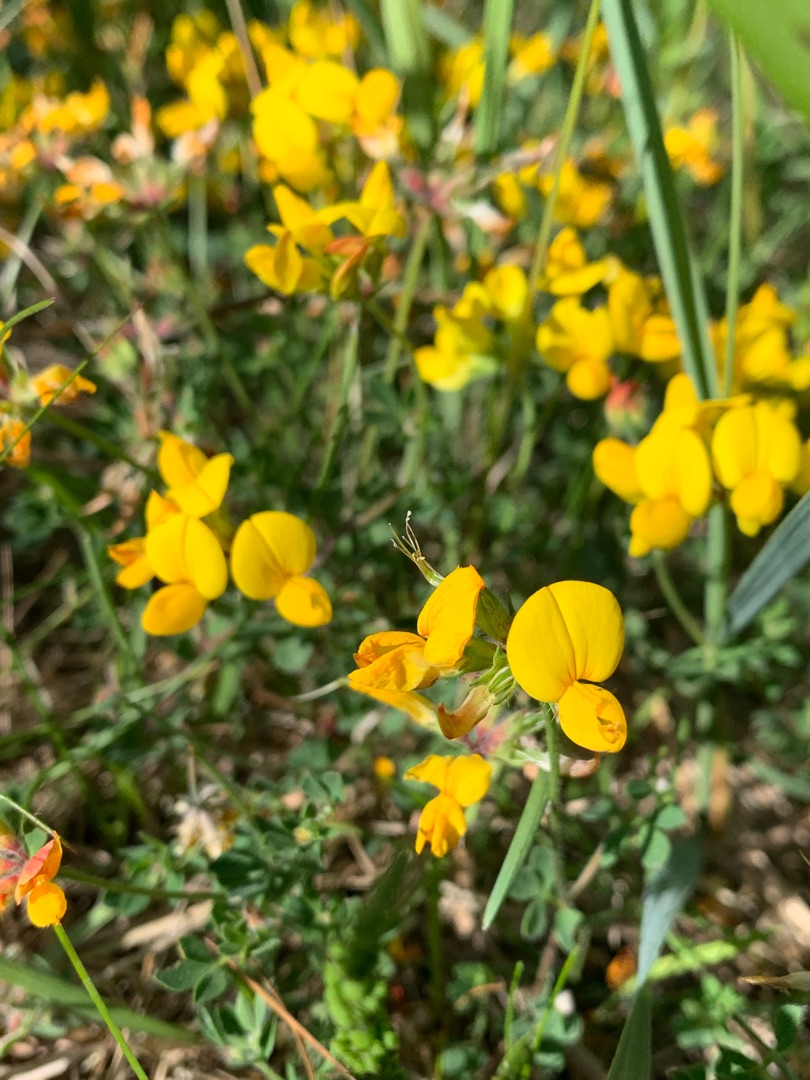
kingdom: Plantae
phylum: Tracheophyta
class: Magnoliopsida
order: Fabales
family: Fabaceae
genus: Lotus
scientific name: Lotus corniculatus
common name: Almindelig kællingetand
